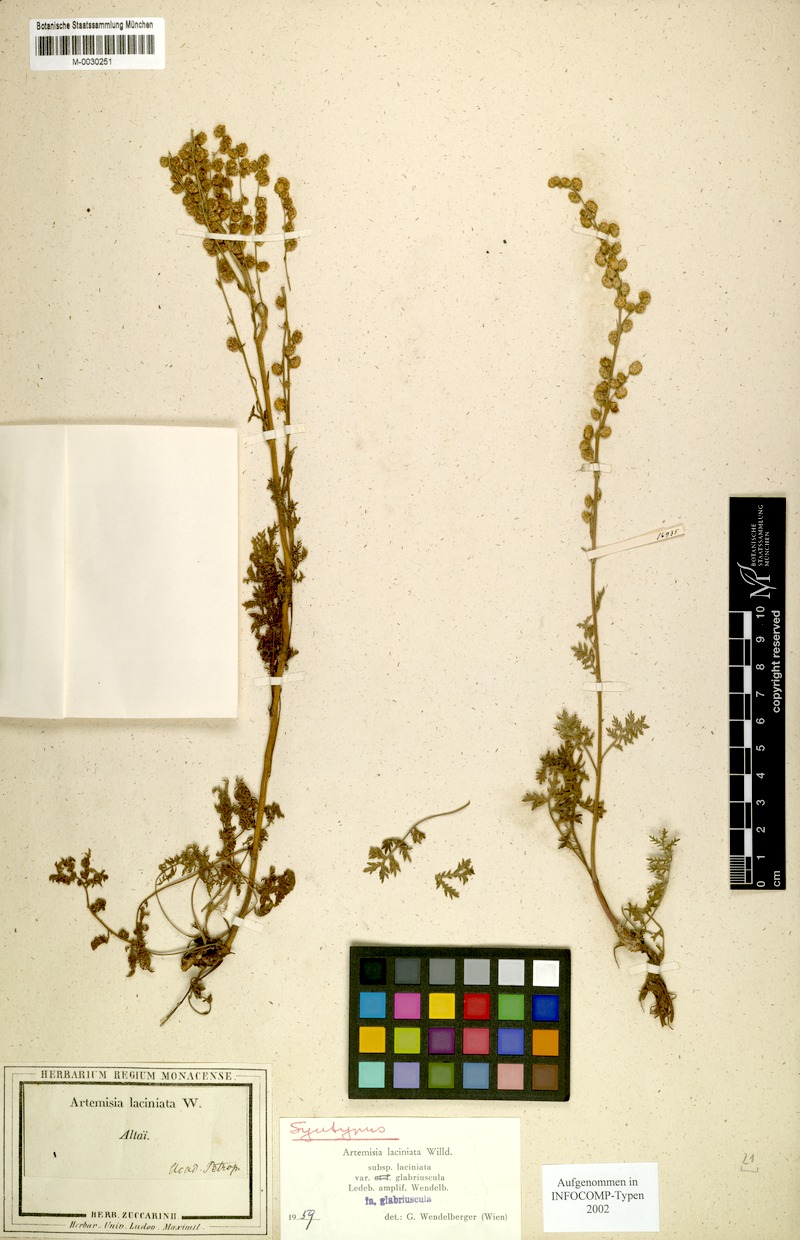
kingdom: Plantae
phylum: Tracheophyta
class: Magnoliopsida
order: Asterales
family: Asteraceae
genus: Artemisia
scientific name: Artemisia laciniata
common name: Siberian wormwood
